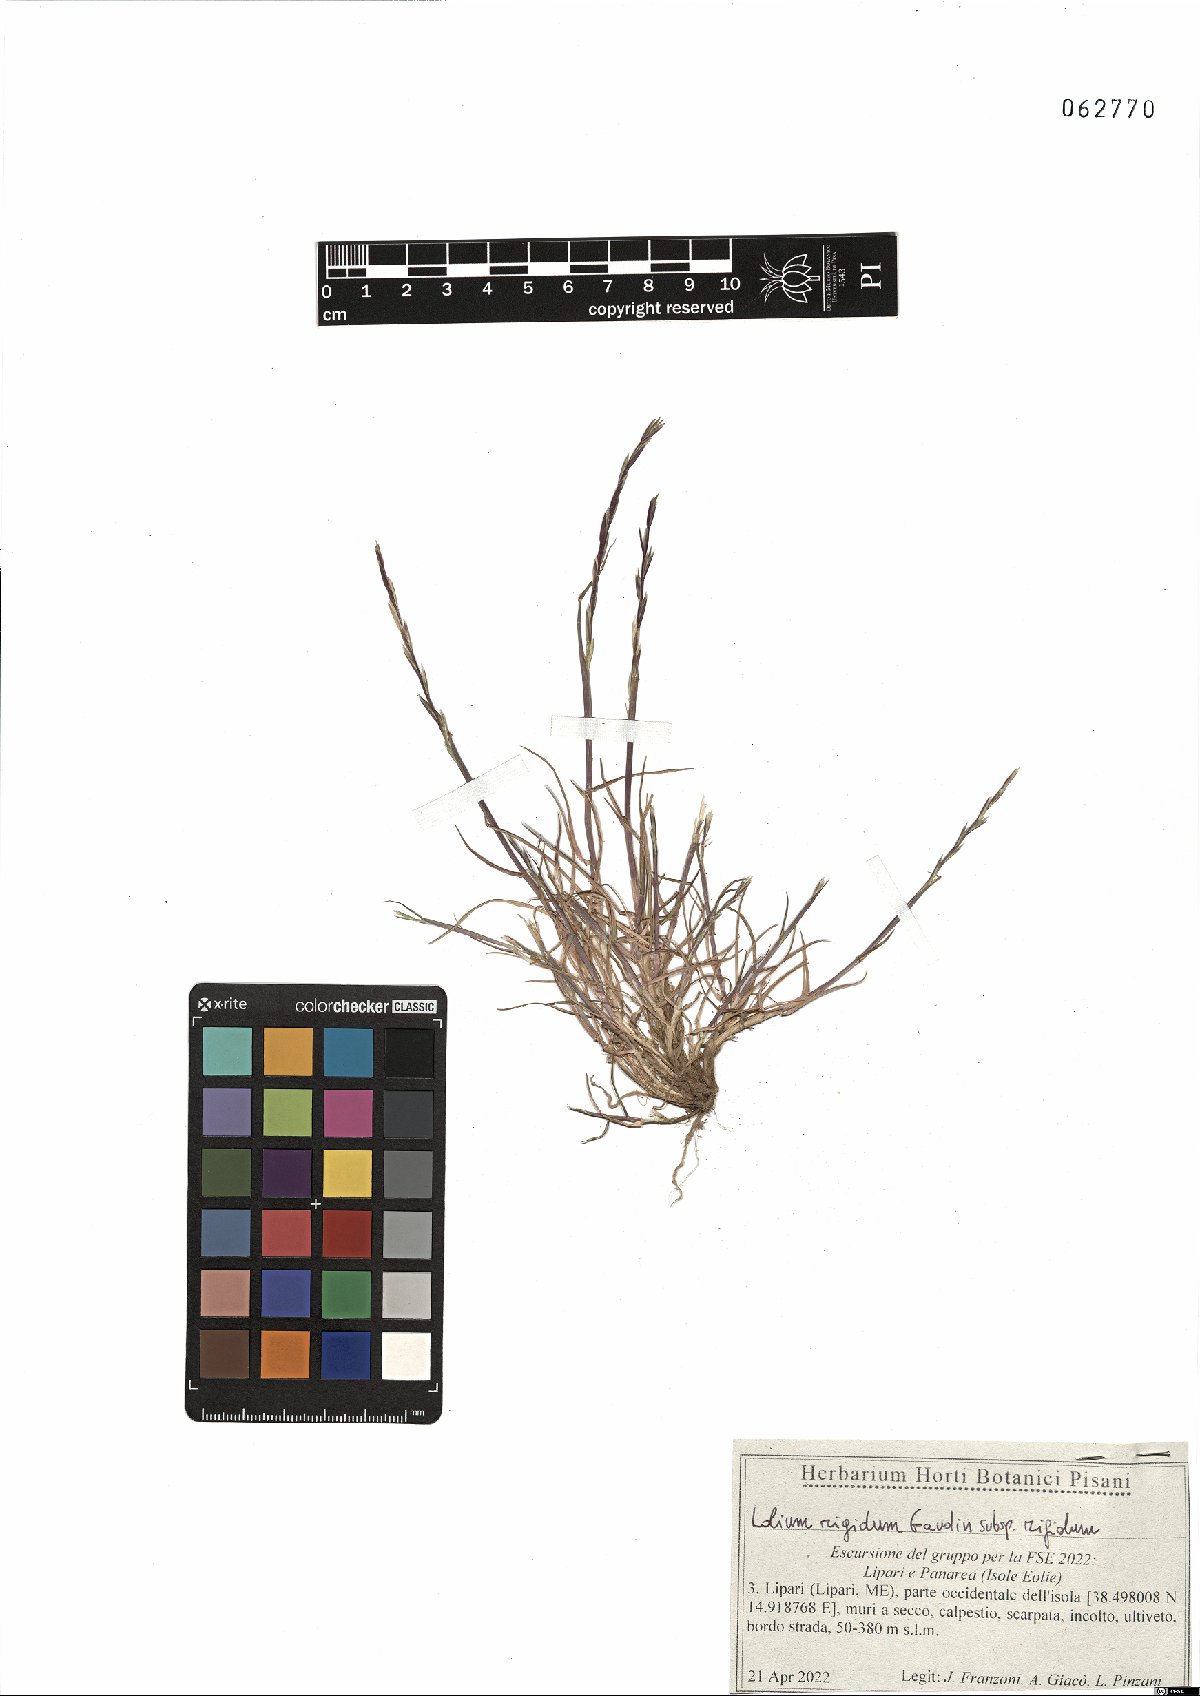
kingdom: Plantae
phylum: Tracheophyta
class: Liliopsida
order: Poales
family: Poaceae
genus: Lolium
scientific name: Lolium rigidum
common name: Wimmera ryegrass
